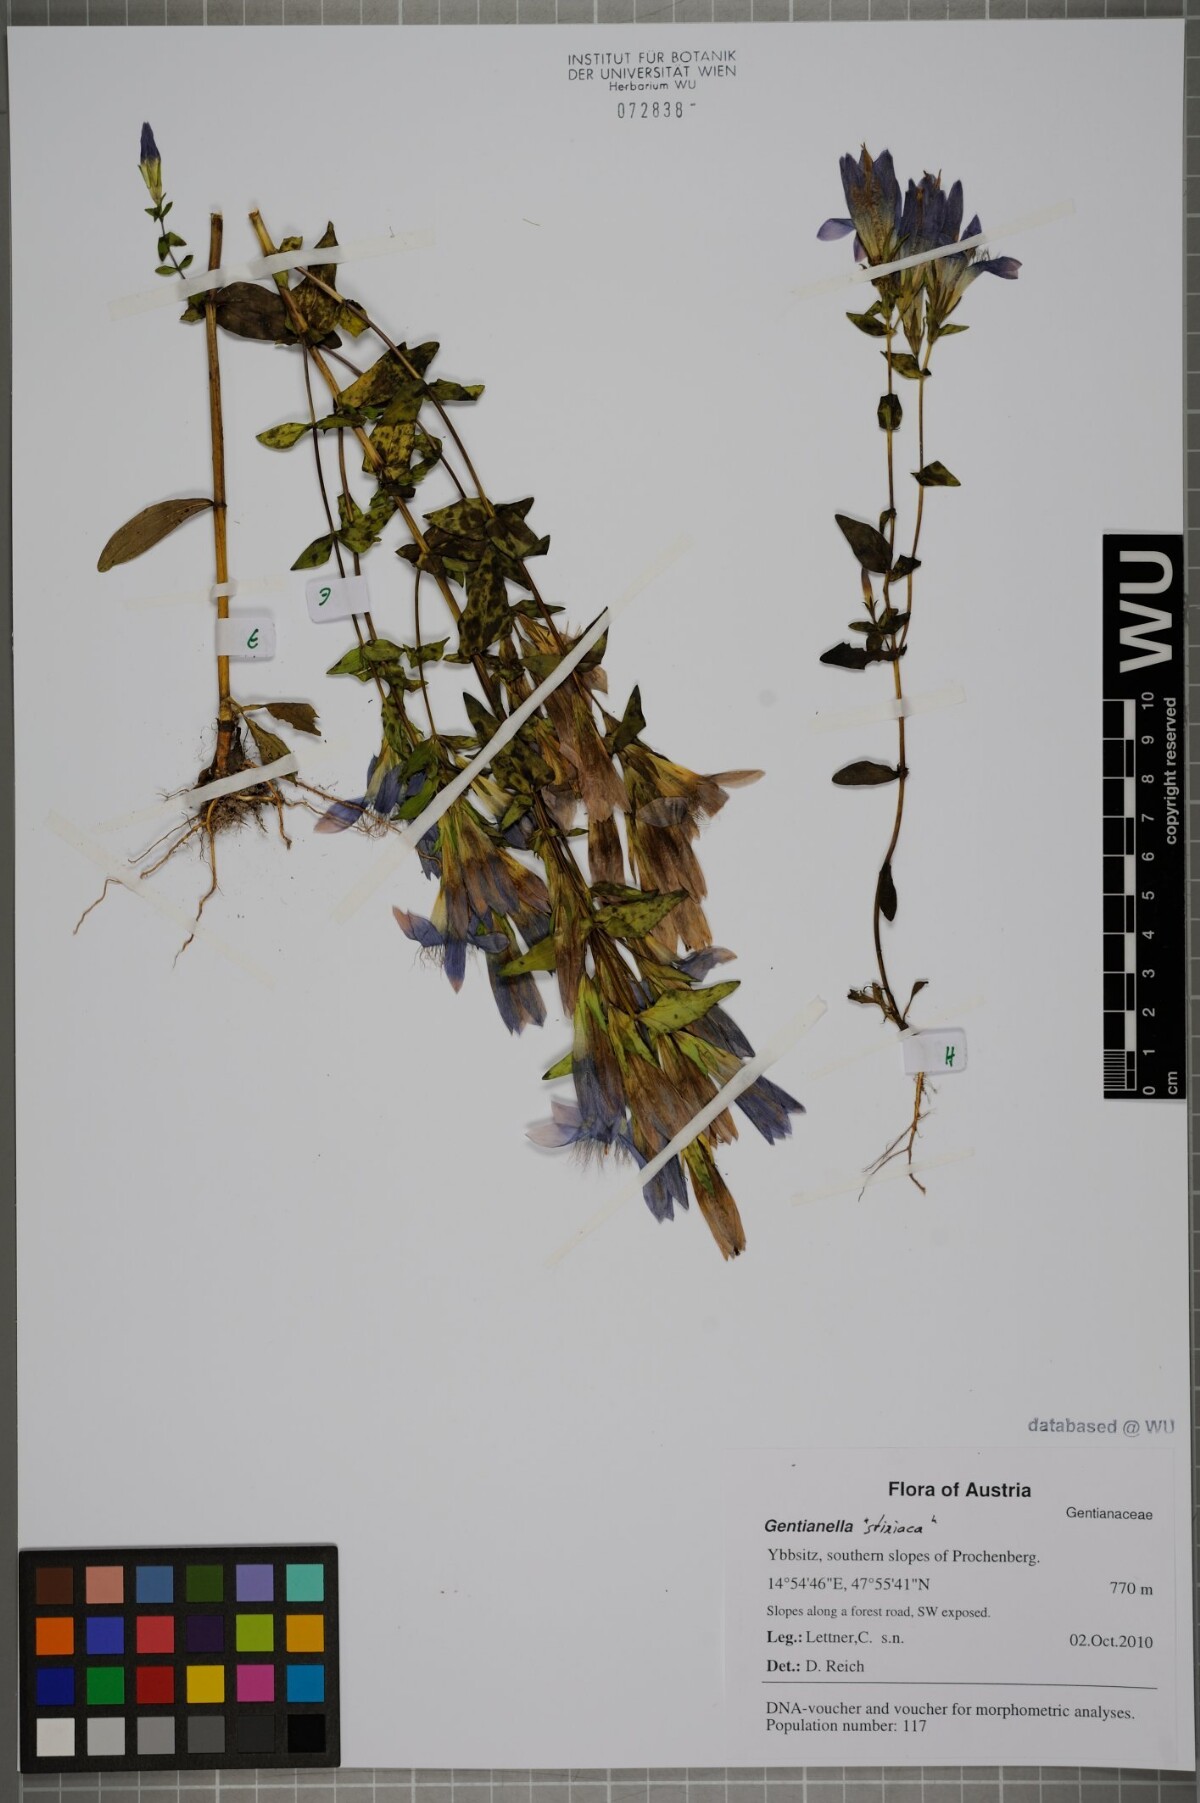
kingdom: Plantae
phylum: Tracheophyta
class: Magnoliopsida
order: Gentianales
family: Gentianaceae
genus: Gentianella
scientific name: Gentianella
